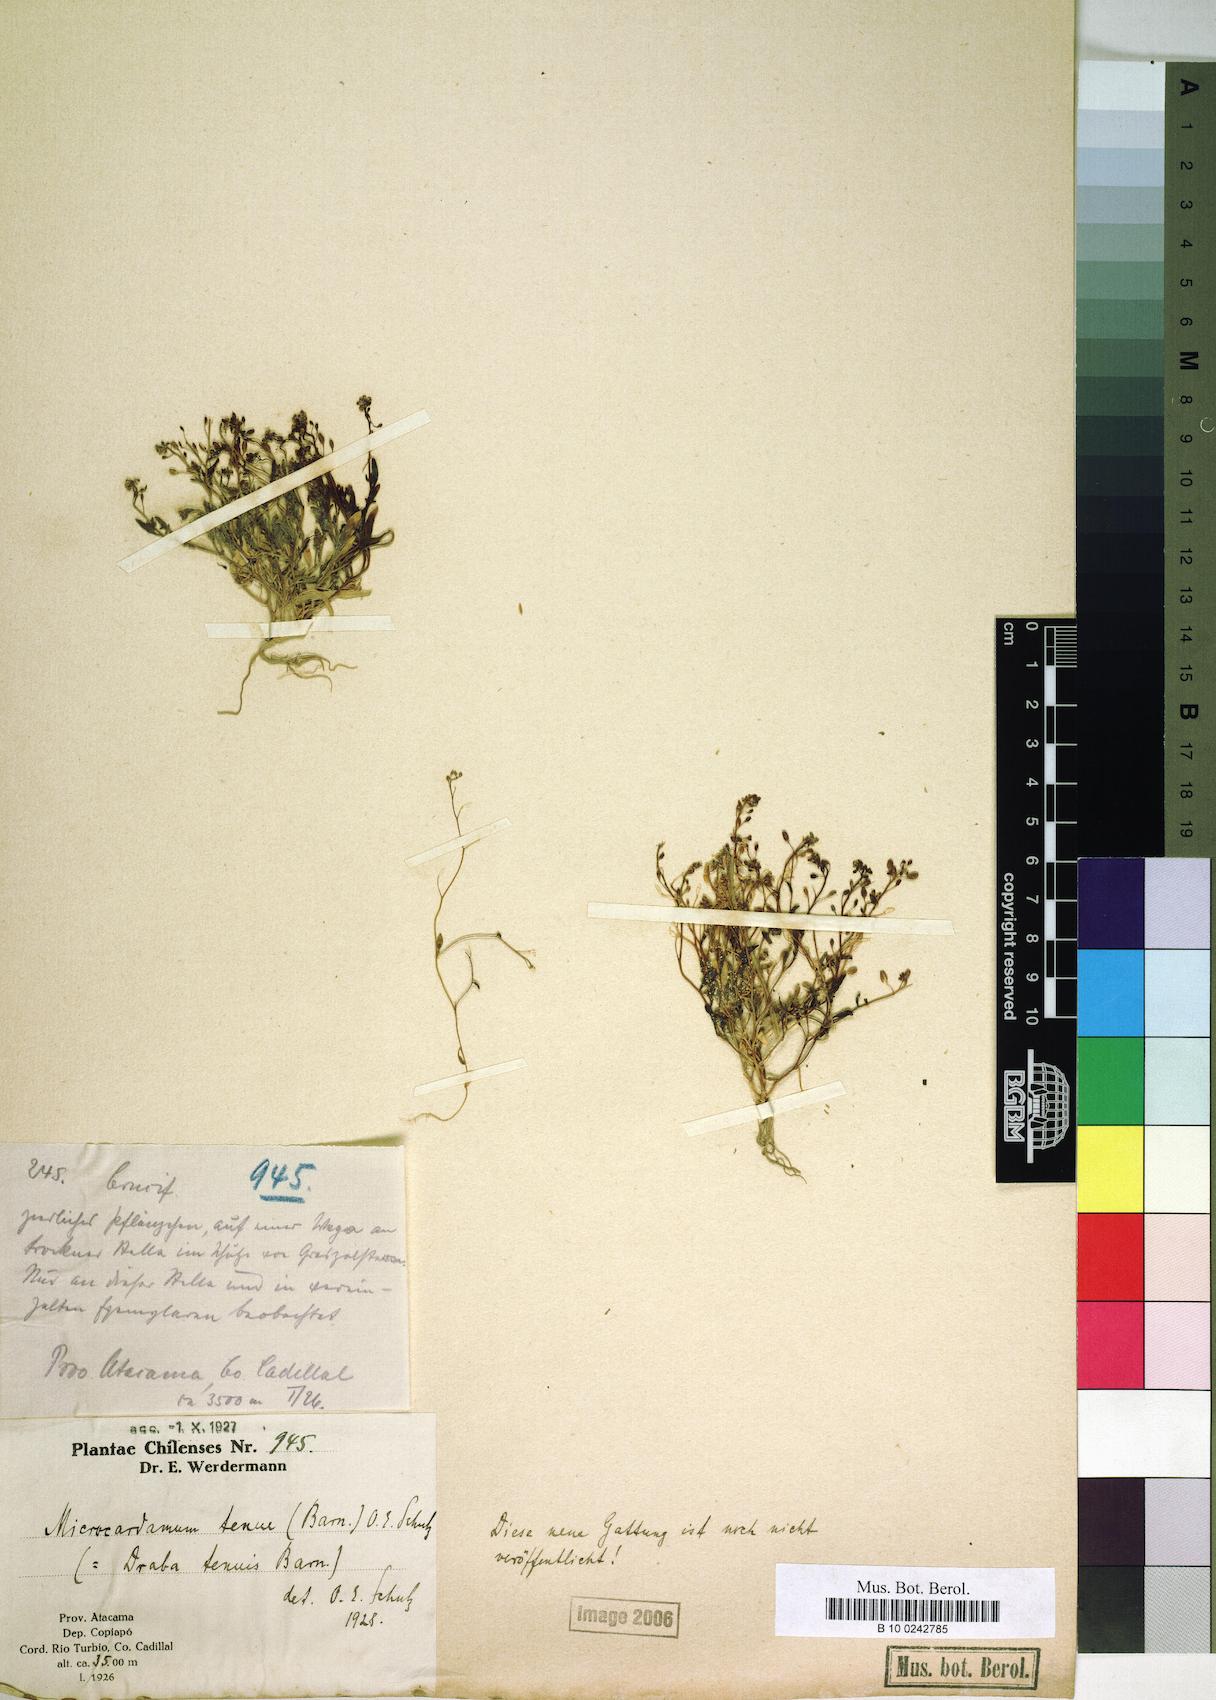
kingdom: Plantae
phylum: Tracheophyta
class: Magnoliopsida
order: Brassicales
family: Brassicaceae
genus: Hornungia
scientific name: Hornungia procumbens
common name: Oval purse
